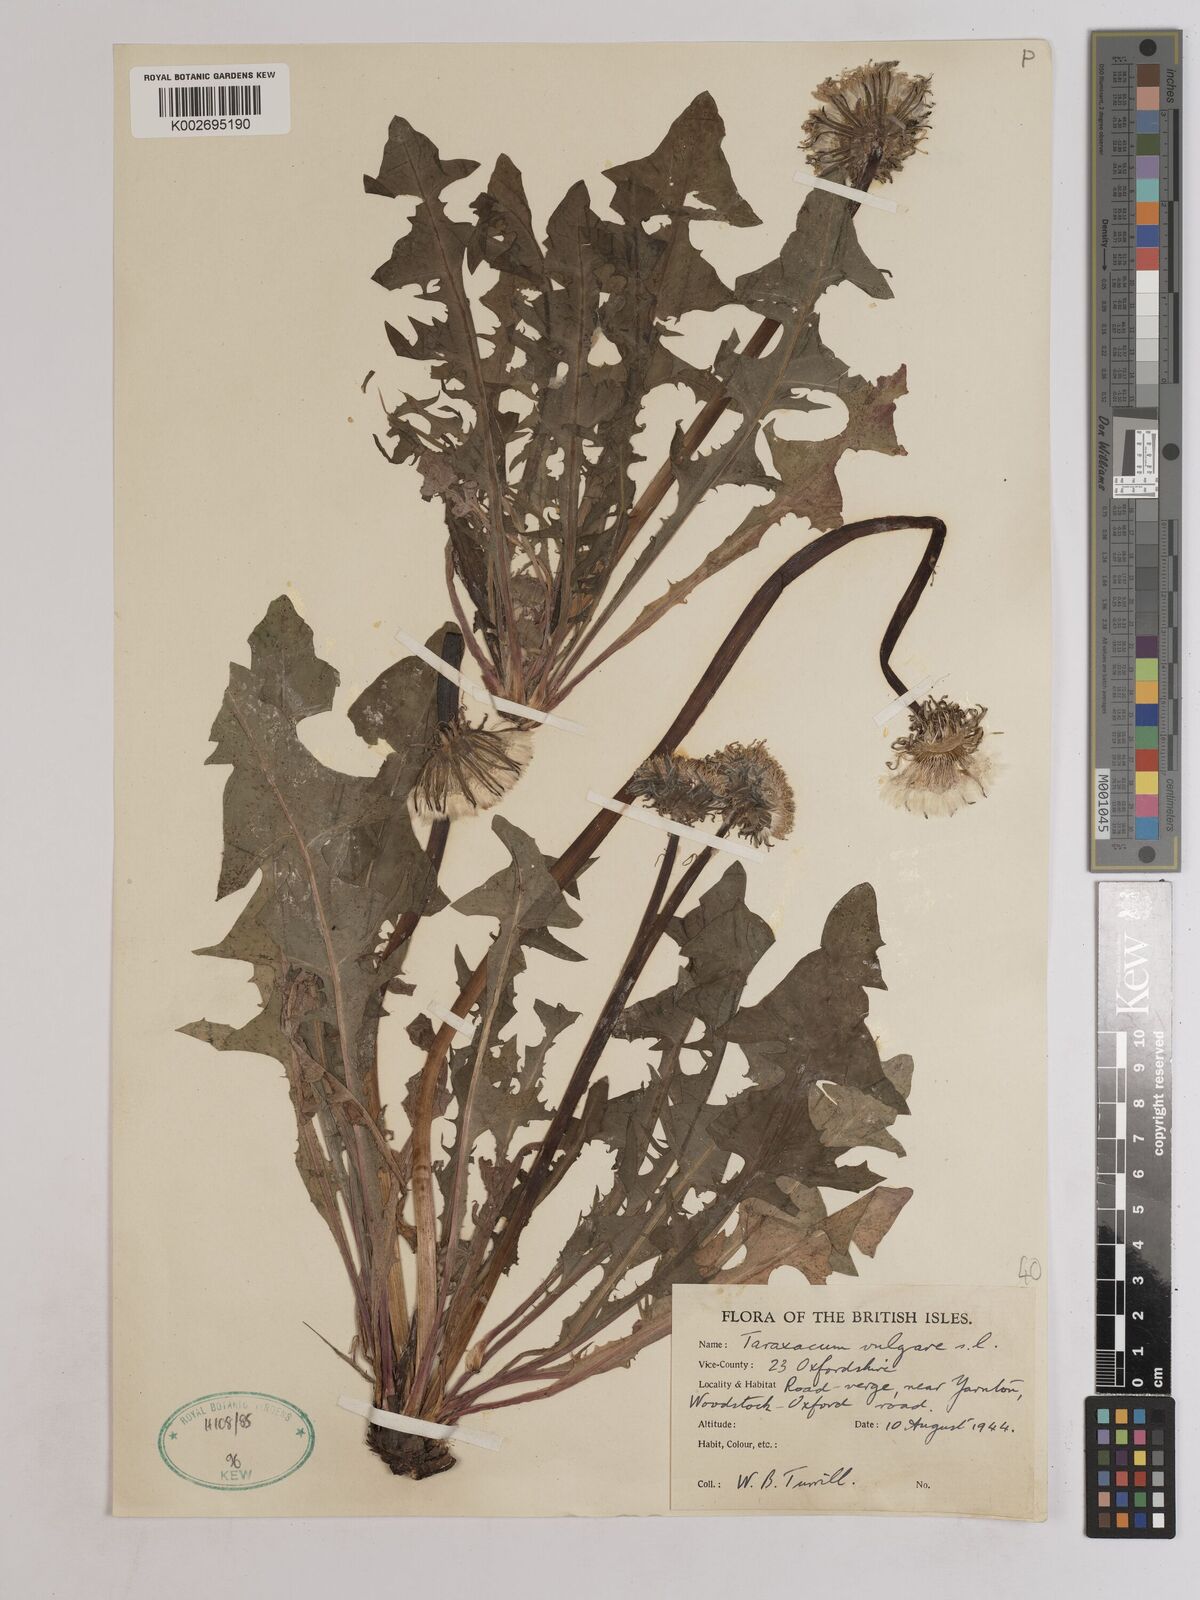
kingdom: Plantae
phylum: Tracheophyta
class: Magnoliopsida
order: Asterales
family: Asteraceae
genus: Taraxacum
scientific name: Taraxacum officinale
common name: Common dandelion
